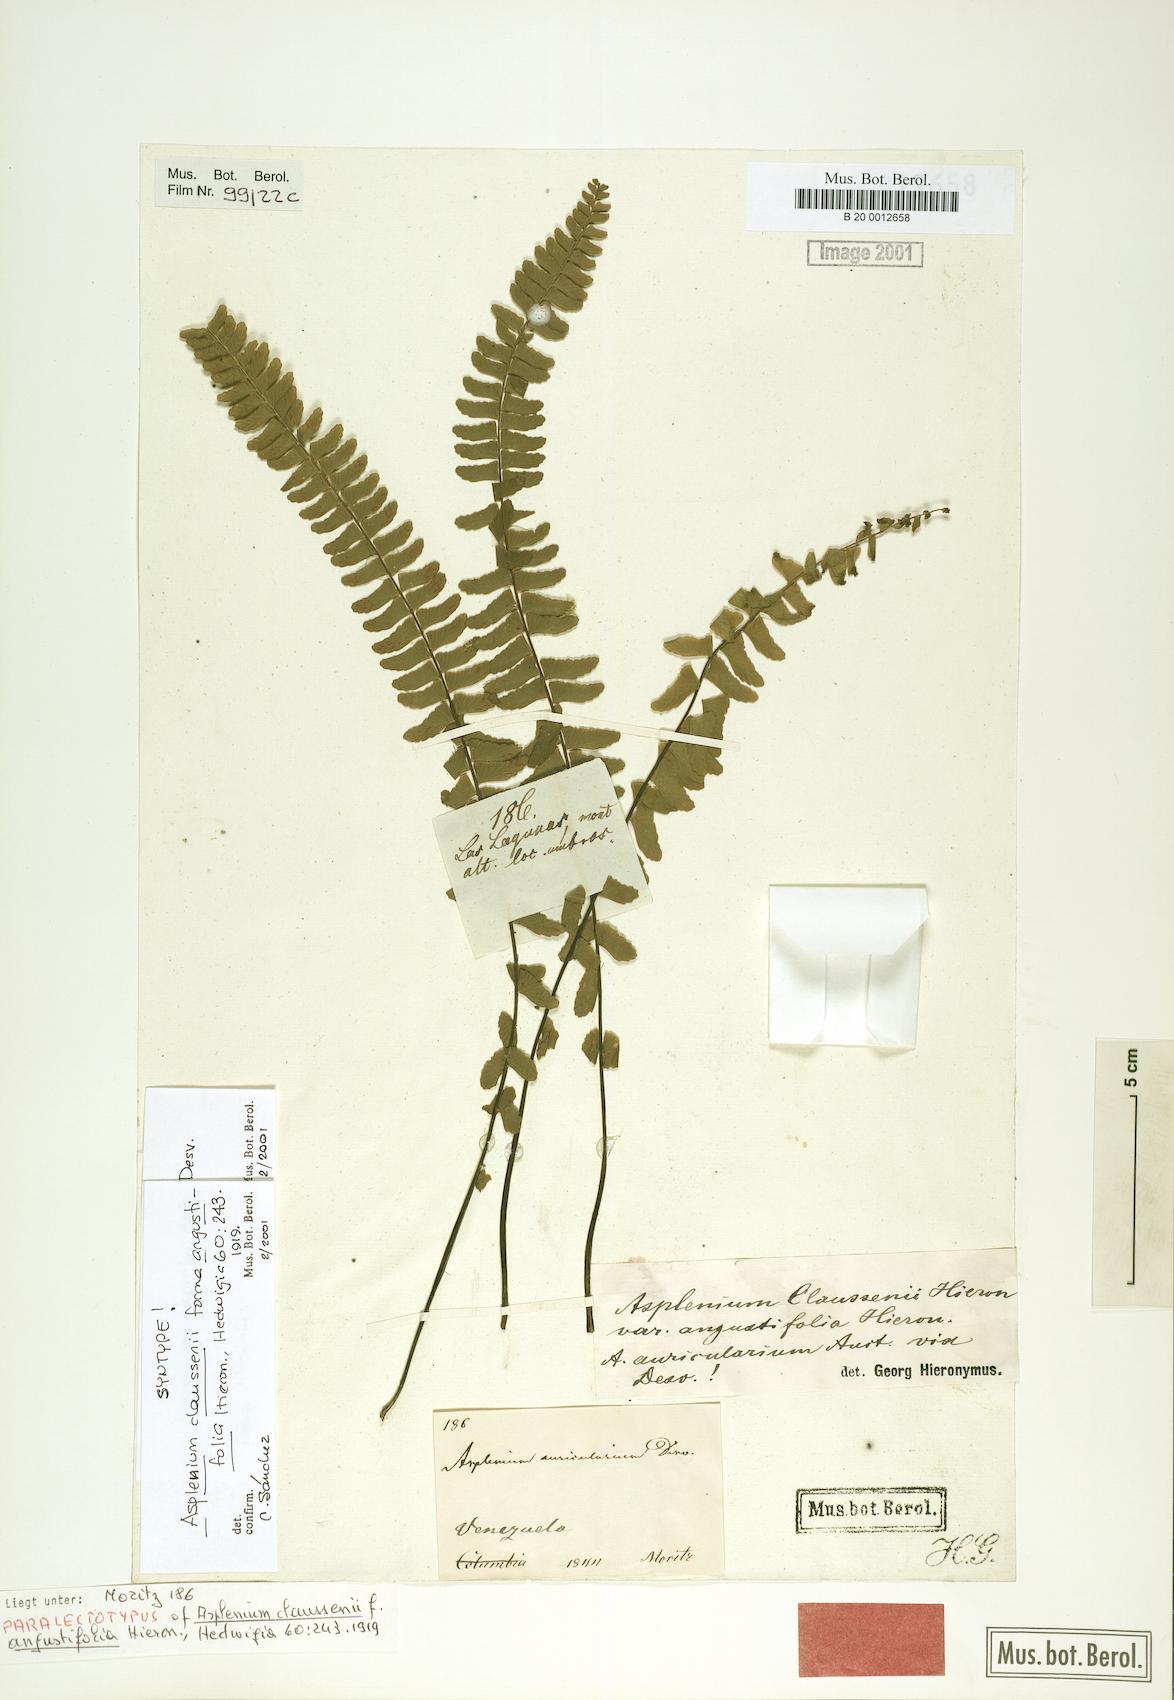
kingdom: Plantae
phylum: Tracheophyta
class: Polypodiopsida
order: Polypodiales
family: Aspleniaceae
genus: Asplenium
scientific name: Asplenium claussenii
